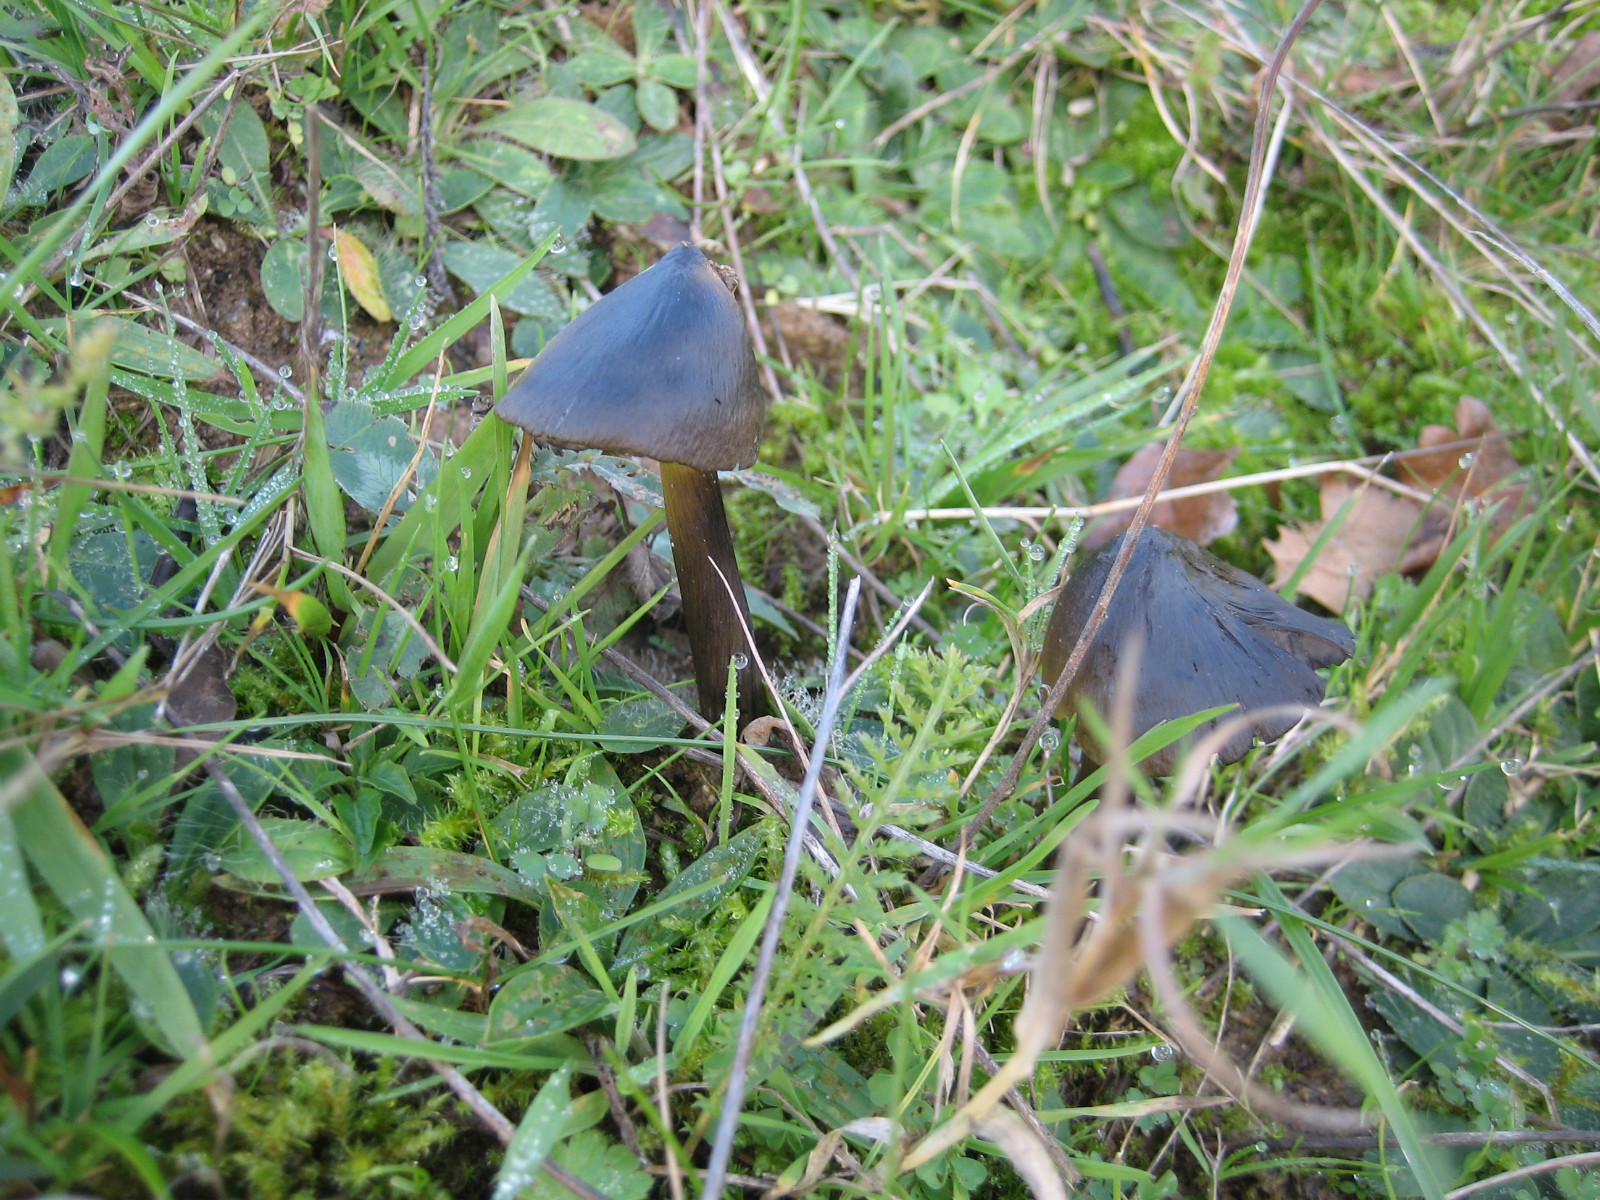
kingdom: Fungi
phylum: Basidiomycota
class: Agaricomycetes
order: Agaricales
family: Hygrophoraceae
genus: Hygrocybe
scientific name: Hygrocybe conica
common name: kegle-vokshat
